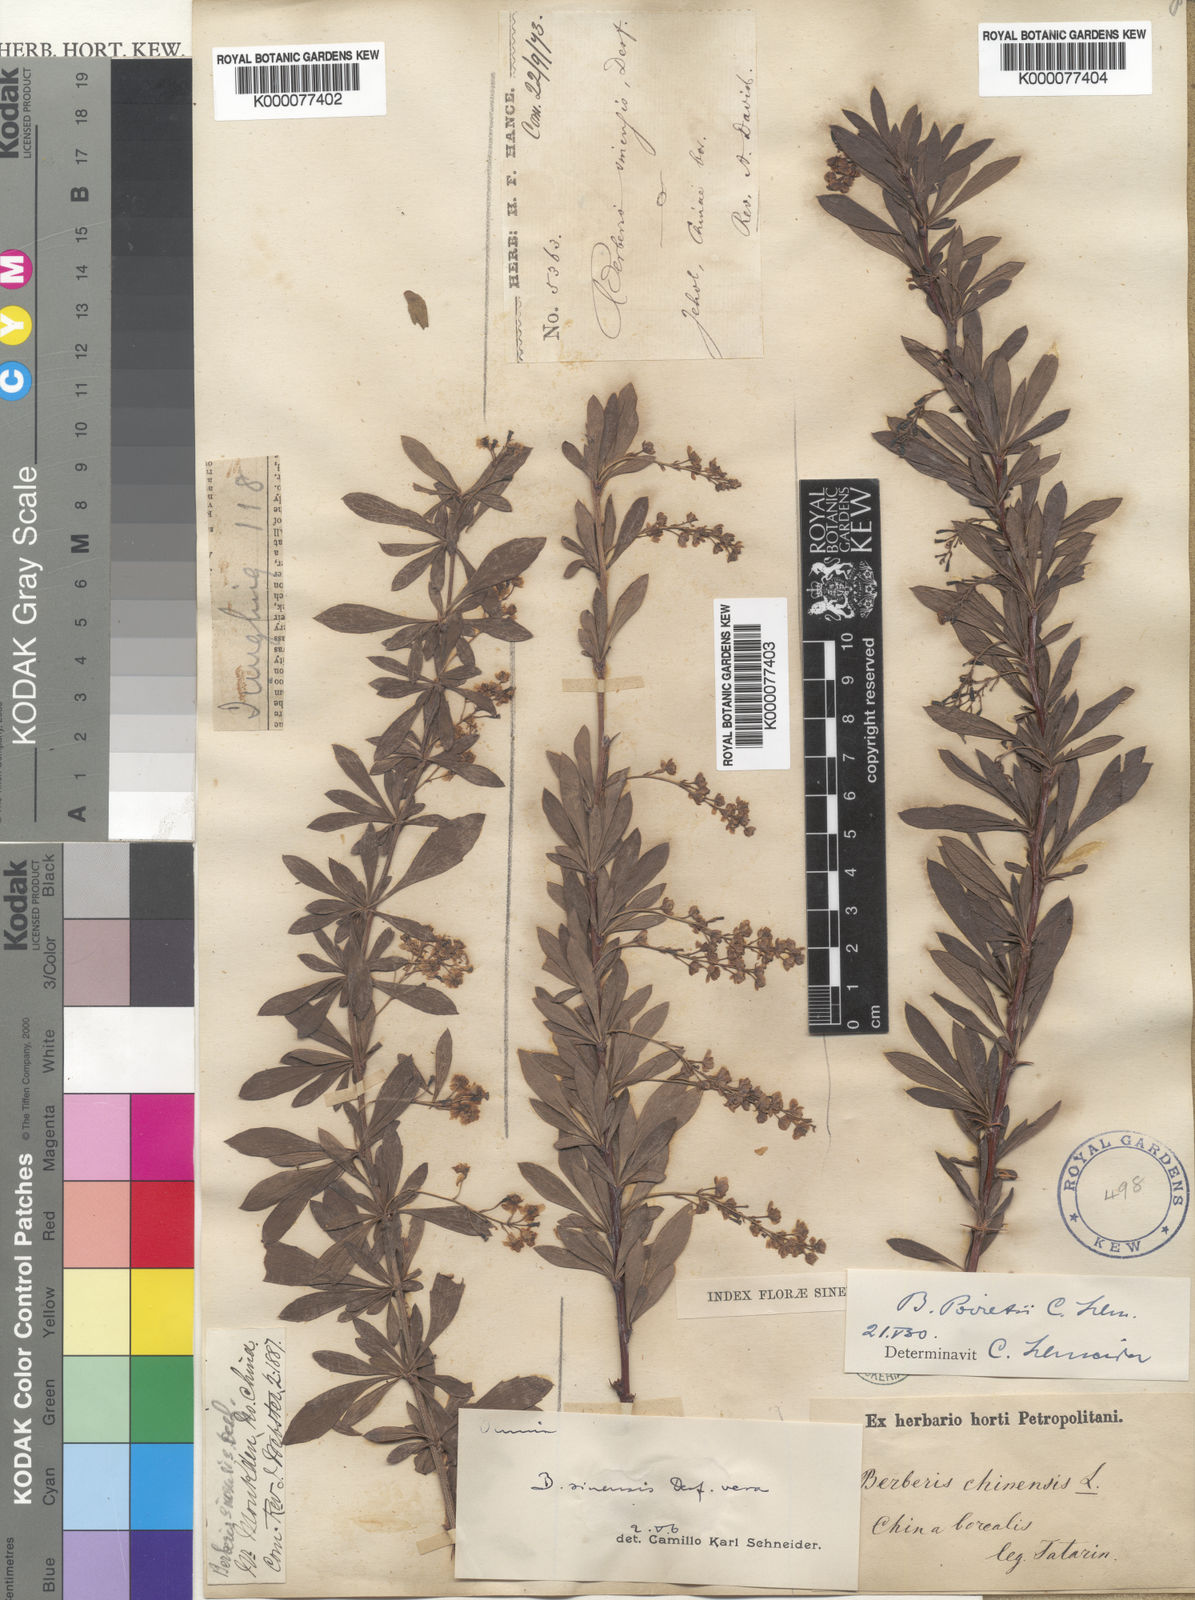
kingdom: Plantae
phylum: Tracheophyta
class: Magnoliopsida
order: Ranunculales
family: Berberidaceae
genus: Berberis
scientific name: Berberis chinensis
